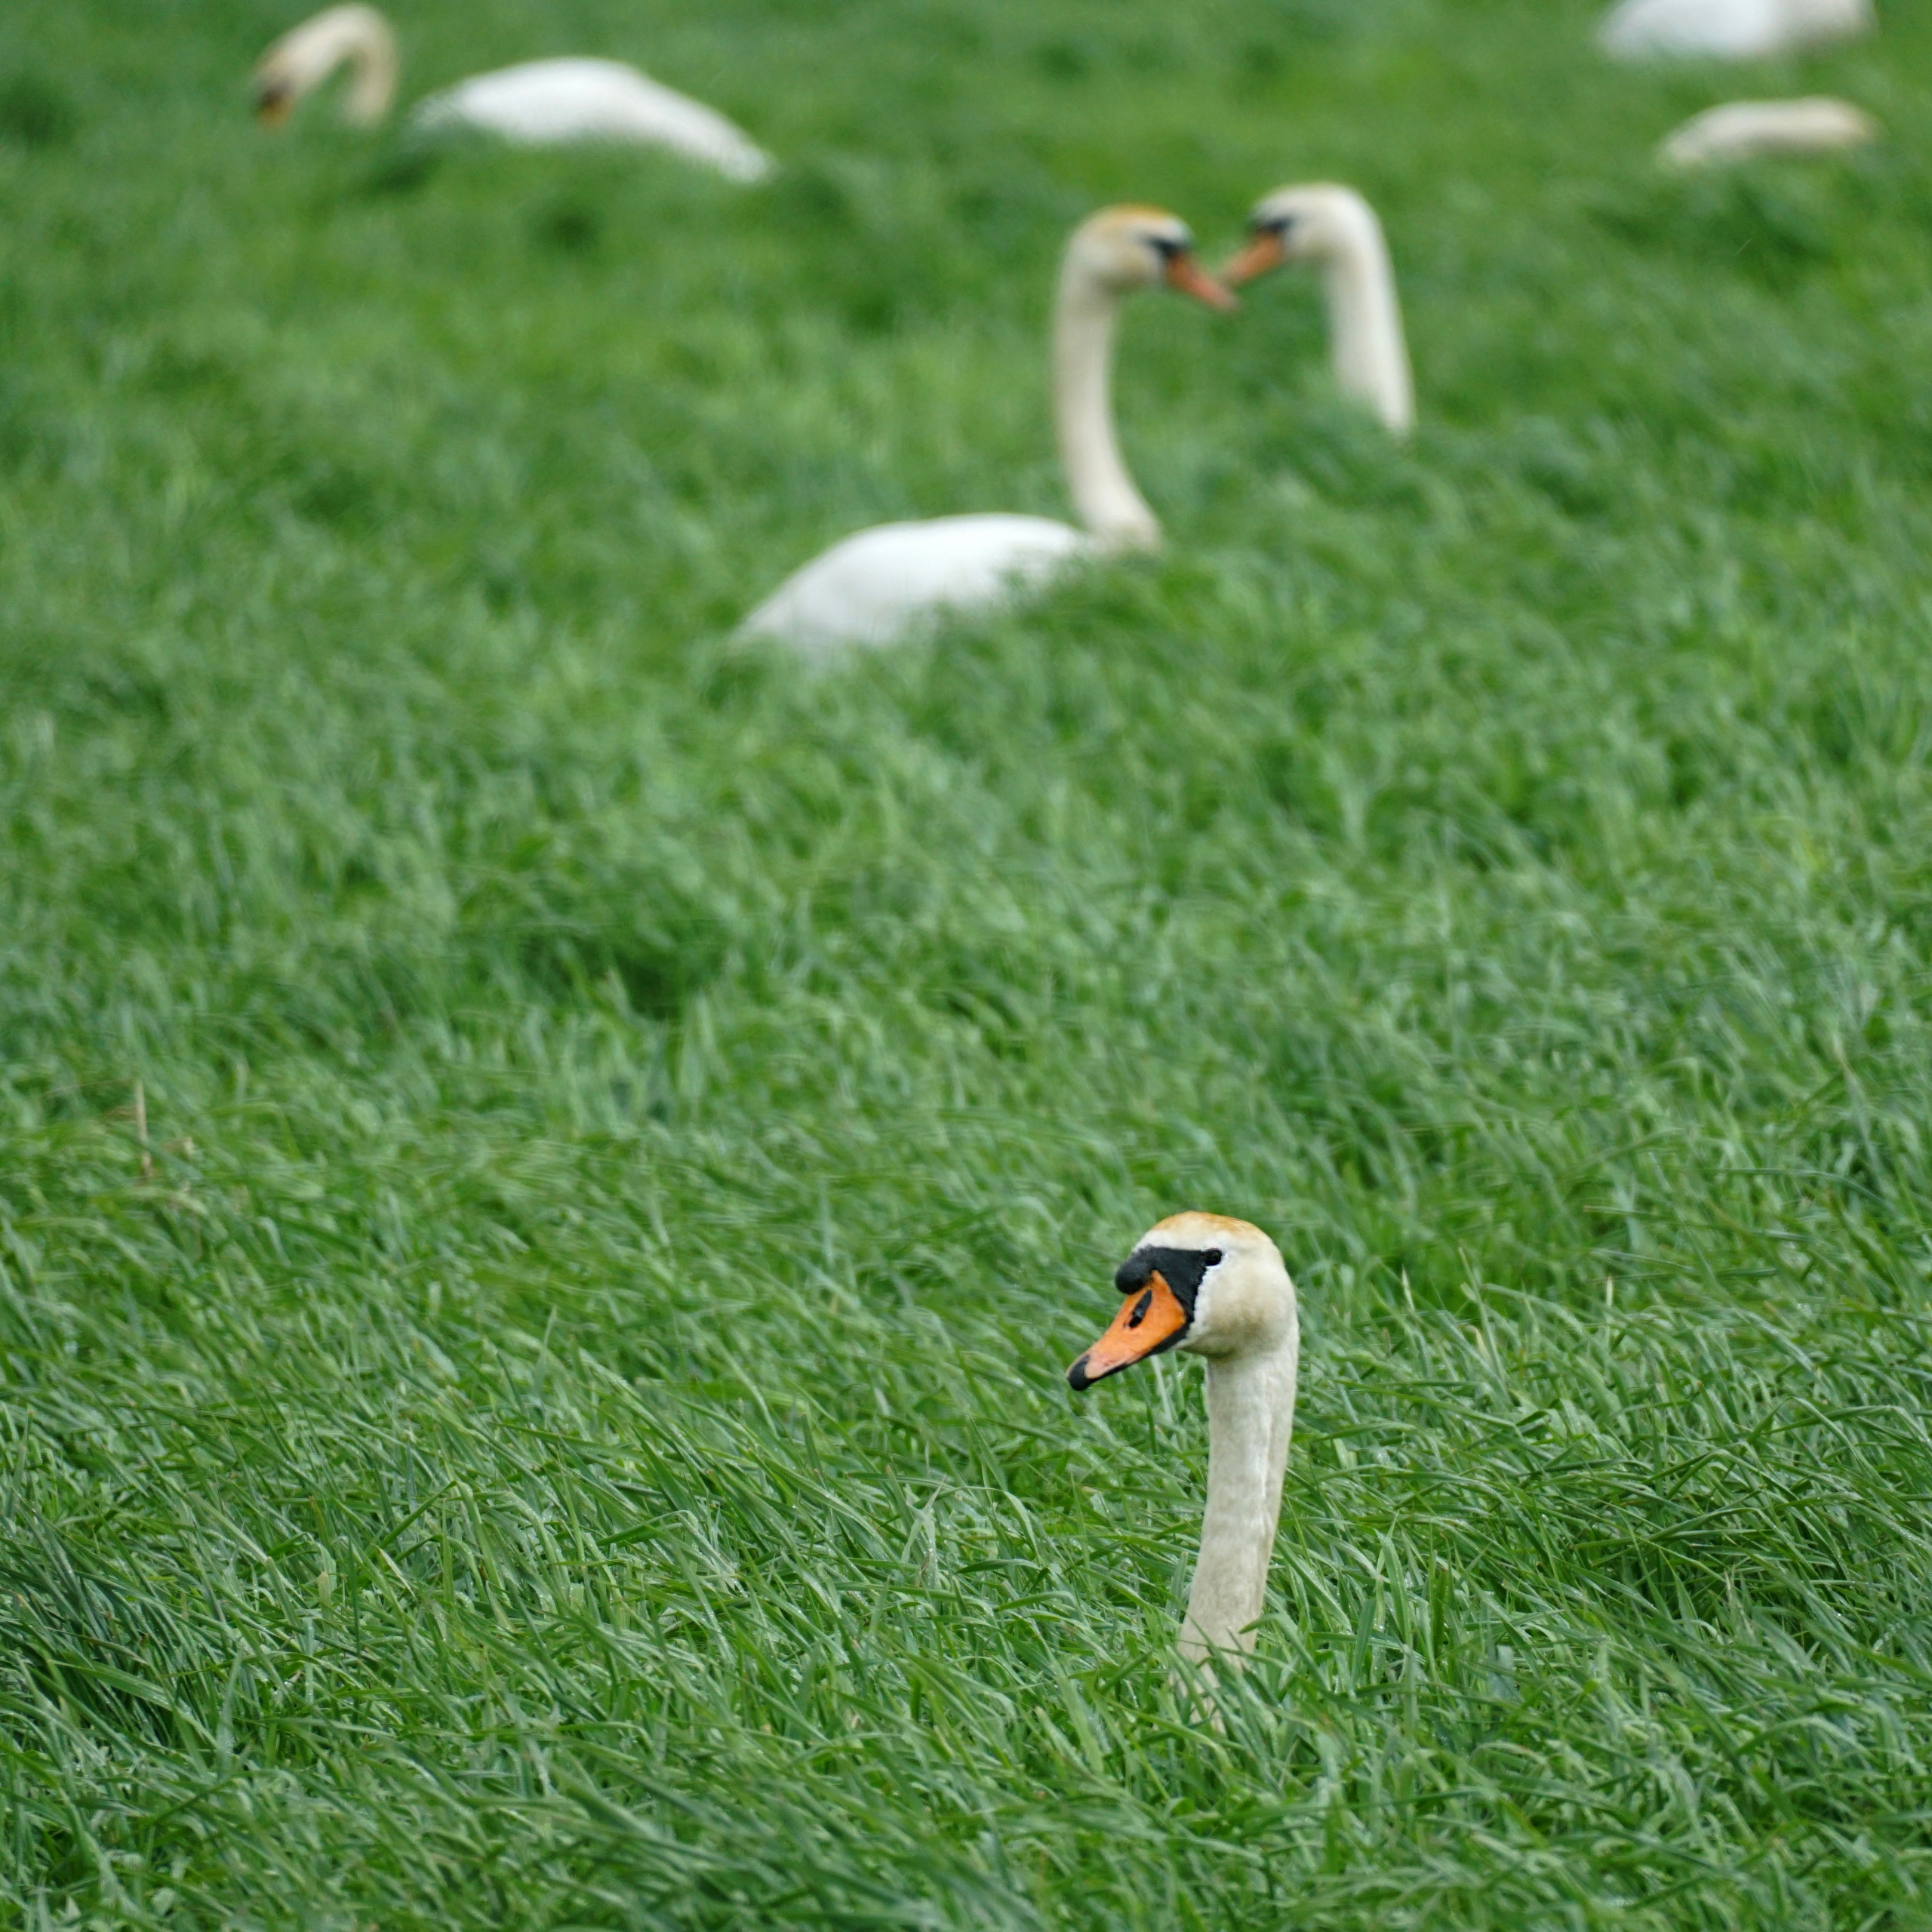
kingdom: Animalia
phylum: Chordata
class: Aves
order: Anseriformes
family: Anatidae
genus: Cygnus
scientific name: Cygnus olor
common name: Knopsvane
